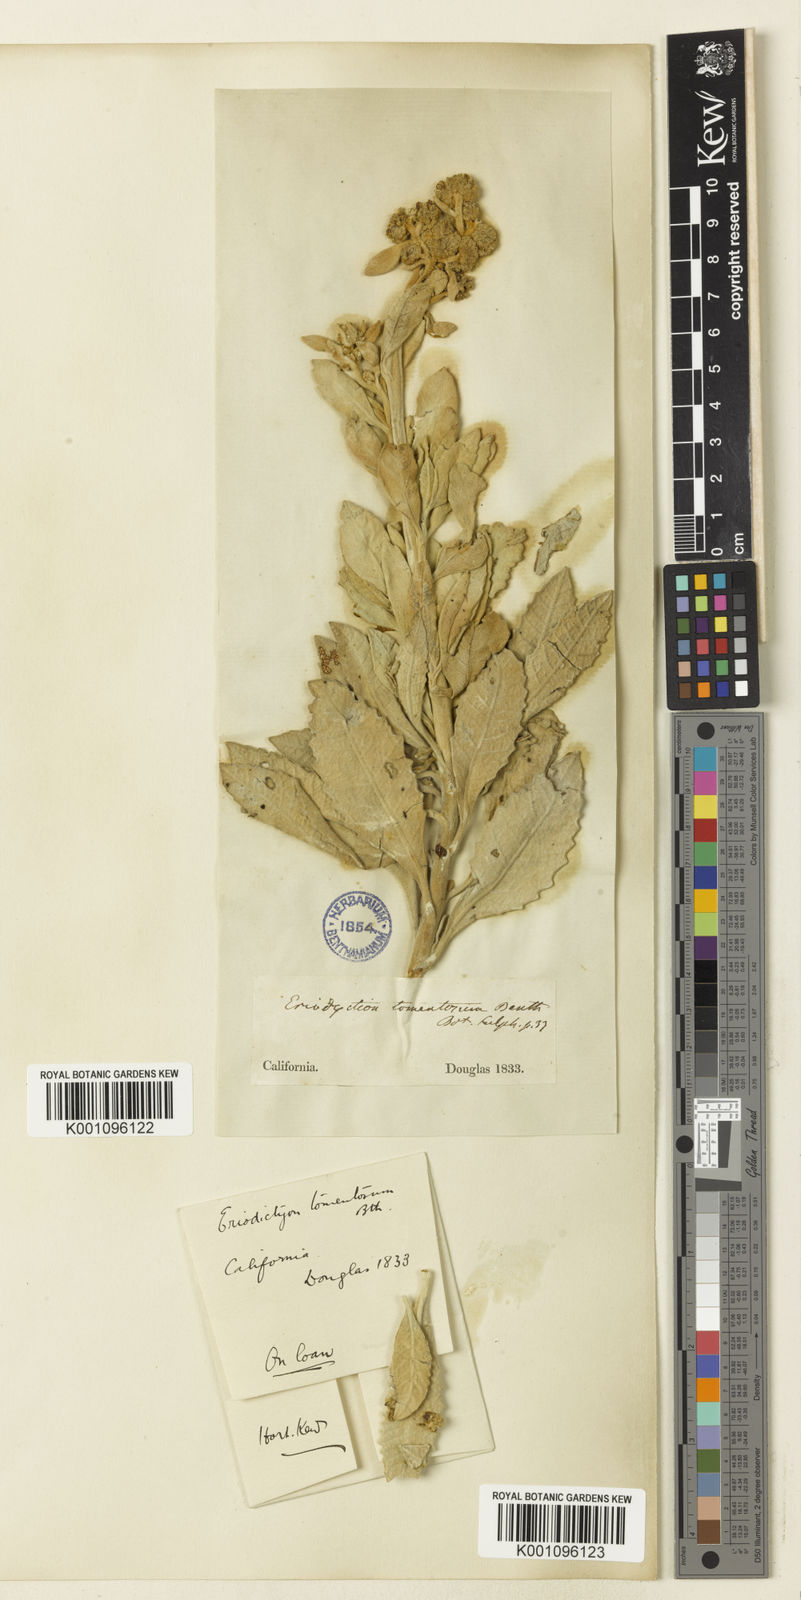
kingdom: Plantae
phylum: Tracheophyta
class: Magnoliopsida
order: Boraginales
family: Namaceae
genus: Eriodictyon
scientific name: Eriodictyon tomentosum
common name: Woolly yerba-santa
